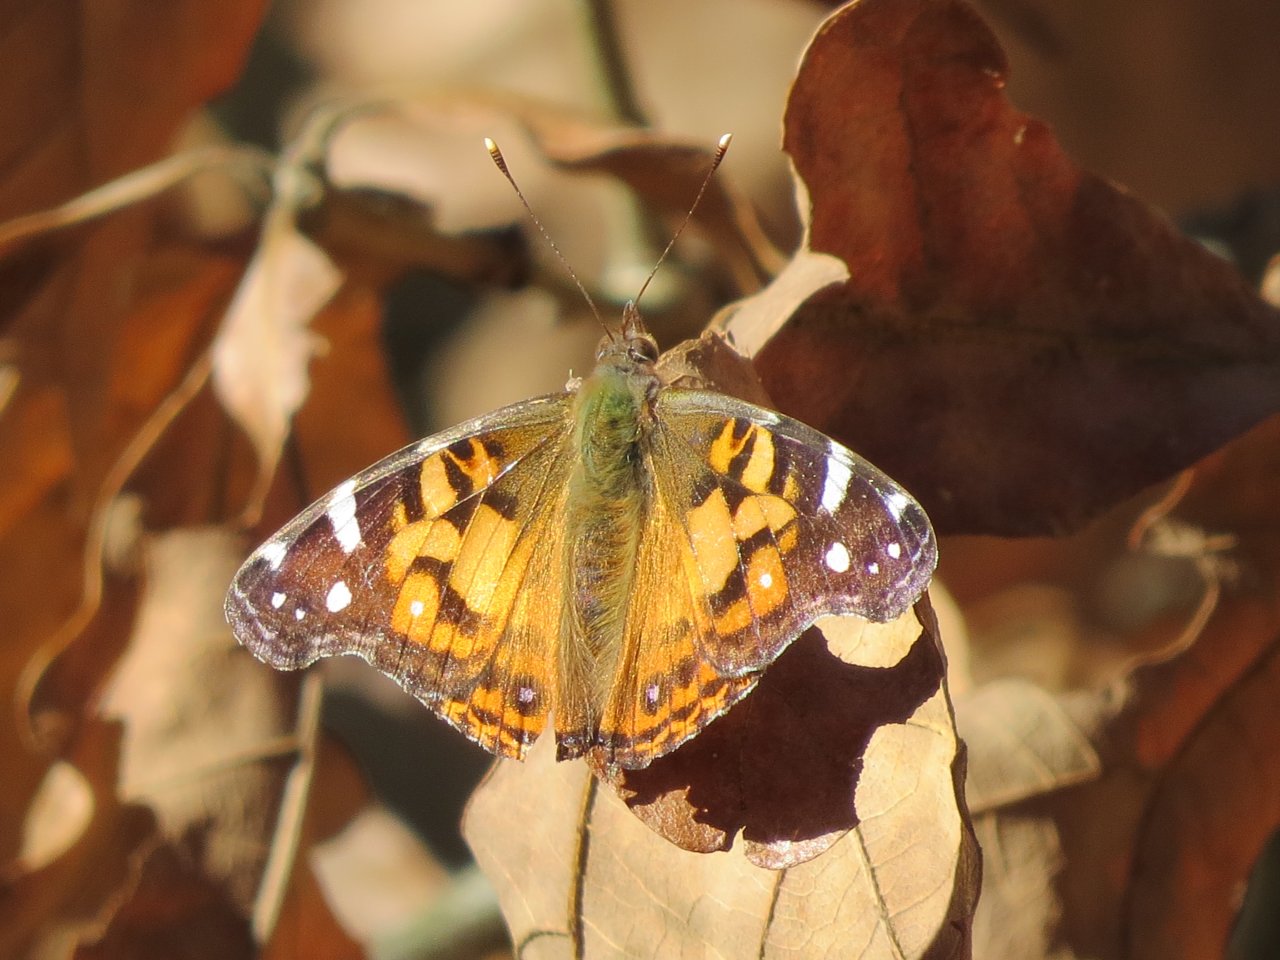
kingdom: Animalia
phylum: Arthropoda
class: Insecta
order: Lepidoptera
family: Nymphalidae
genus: Vanessa
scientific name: Vanessa virginiensis
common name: American Lady
